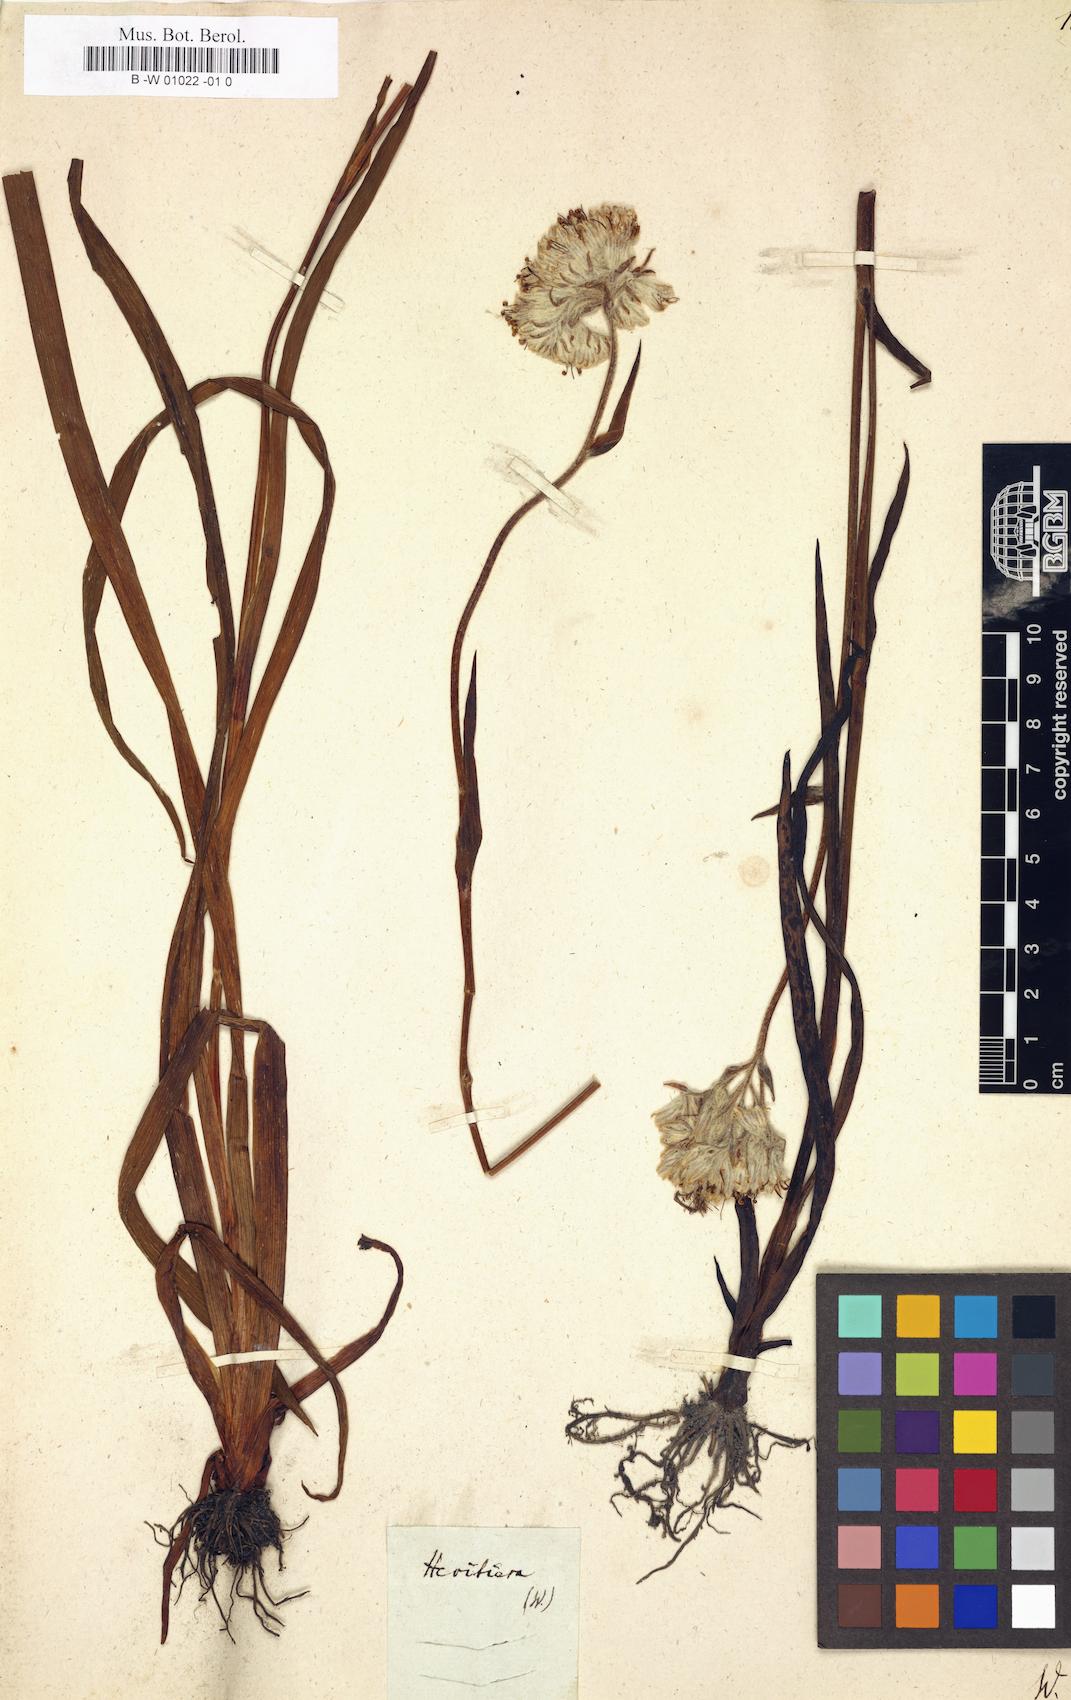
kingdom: Plantae
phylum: Tracheophyta
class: Magnoliopsida
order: Malvales
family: Malvaceae
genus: Pterocymbium
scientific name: Pterocymbium tinctorium
